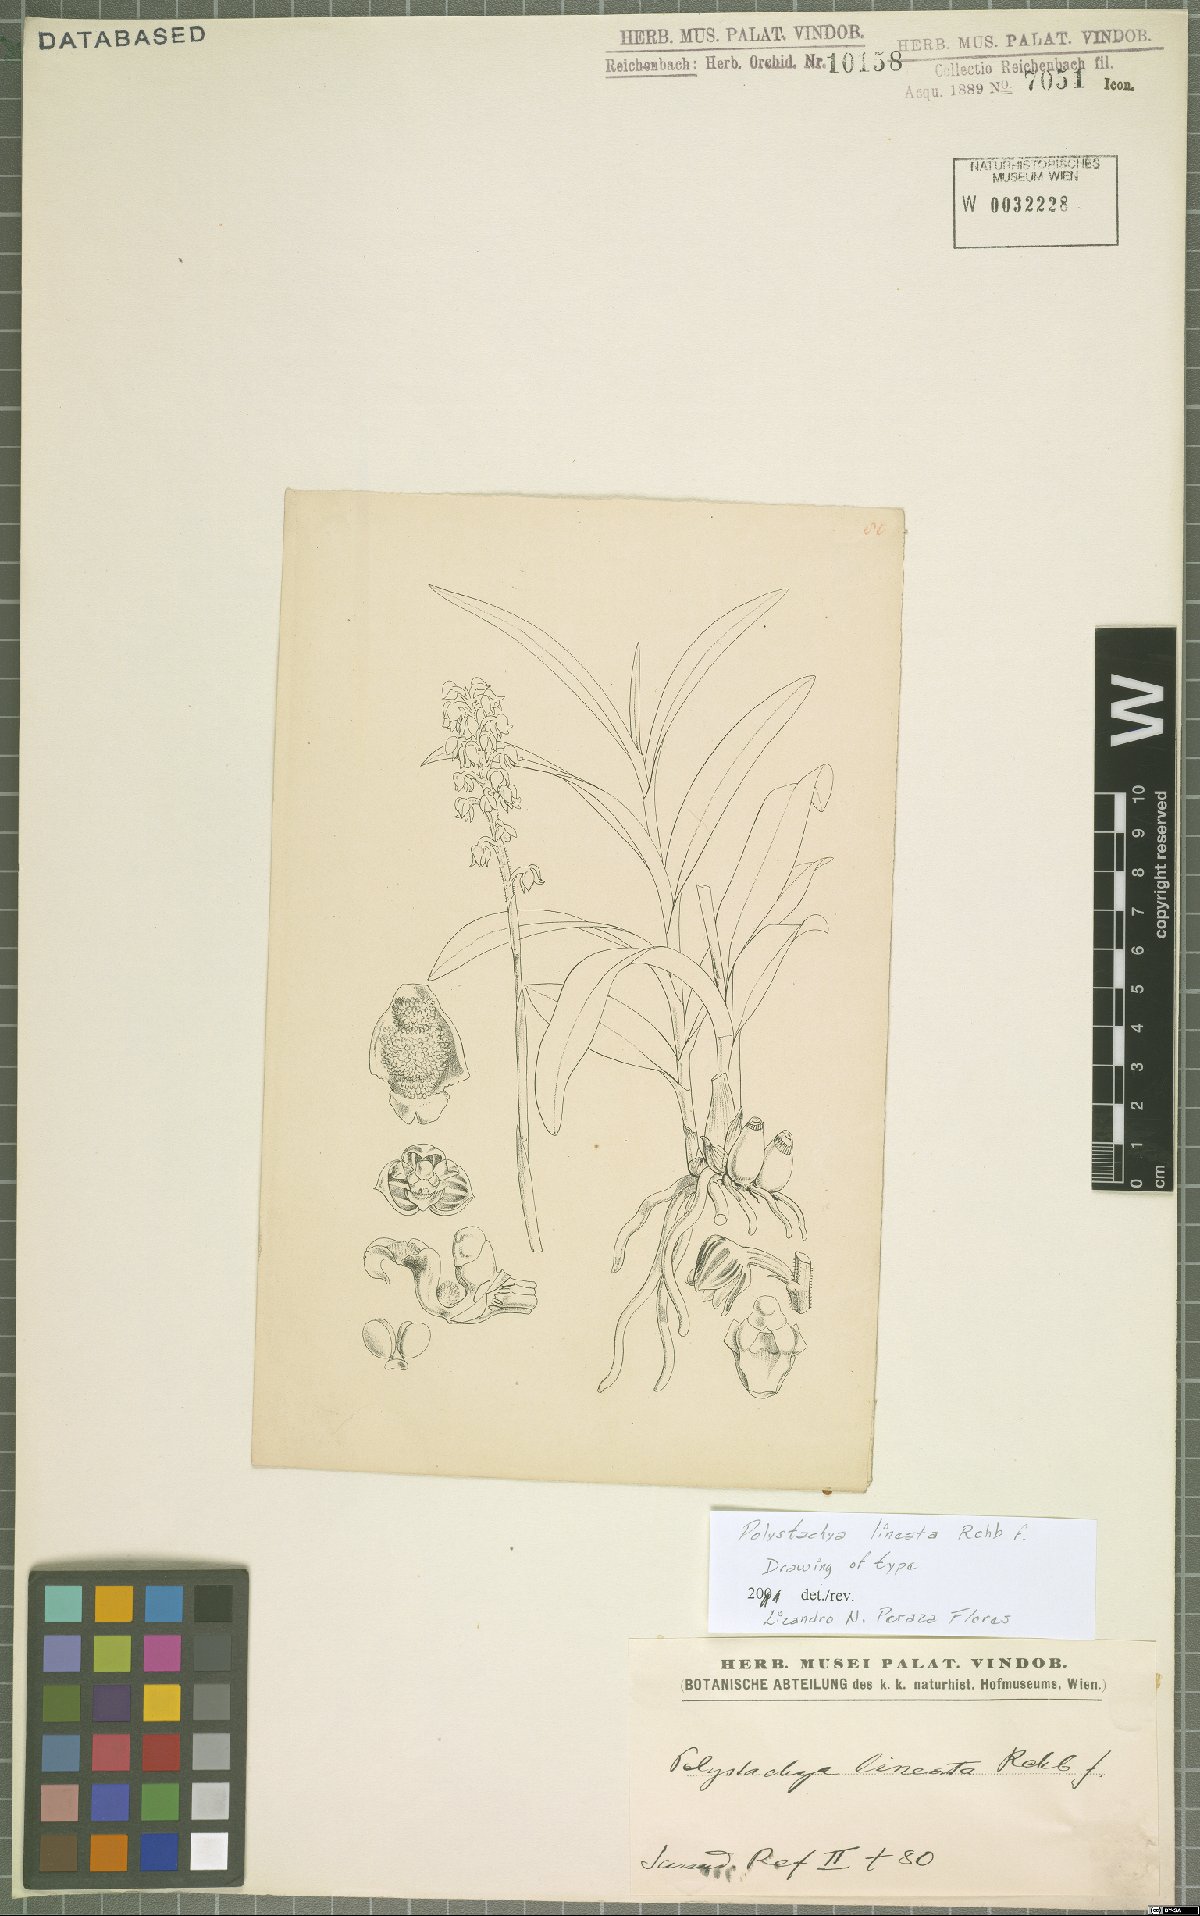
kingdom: Plantae
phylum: Tracheophyta
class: Liliopsida
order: Asparagales
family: Orchidaceae
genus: Polystachya
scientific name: Polystachya lineata
